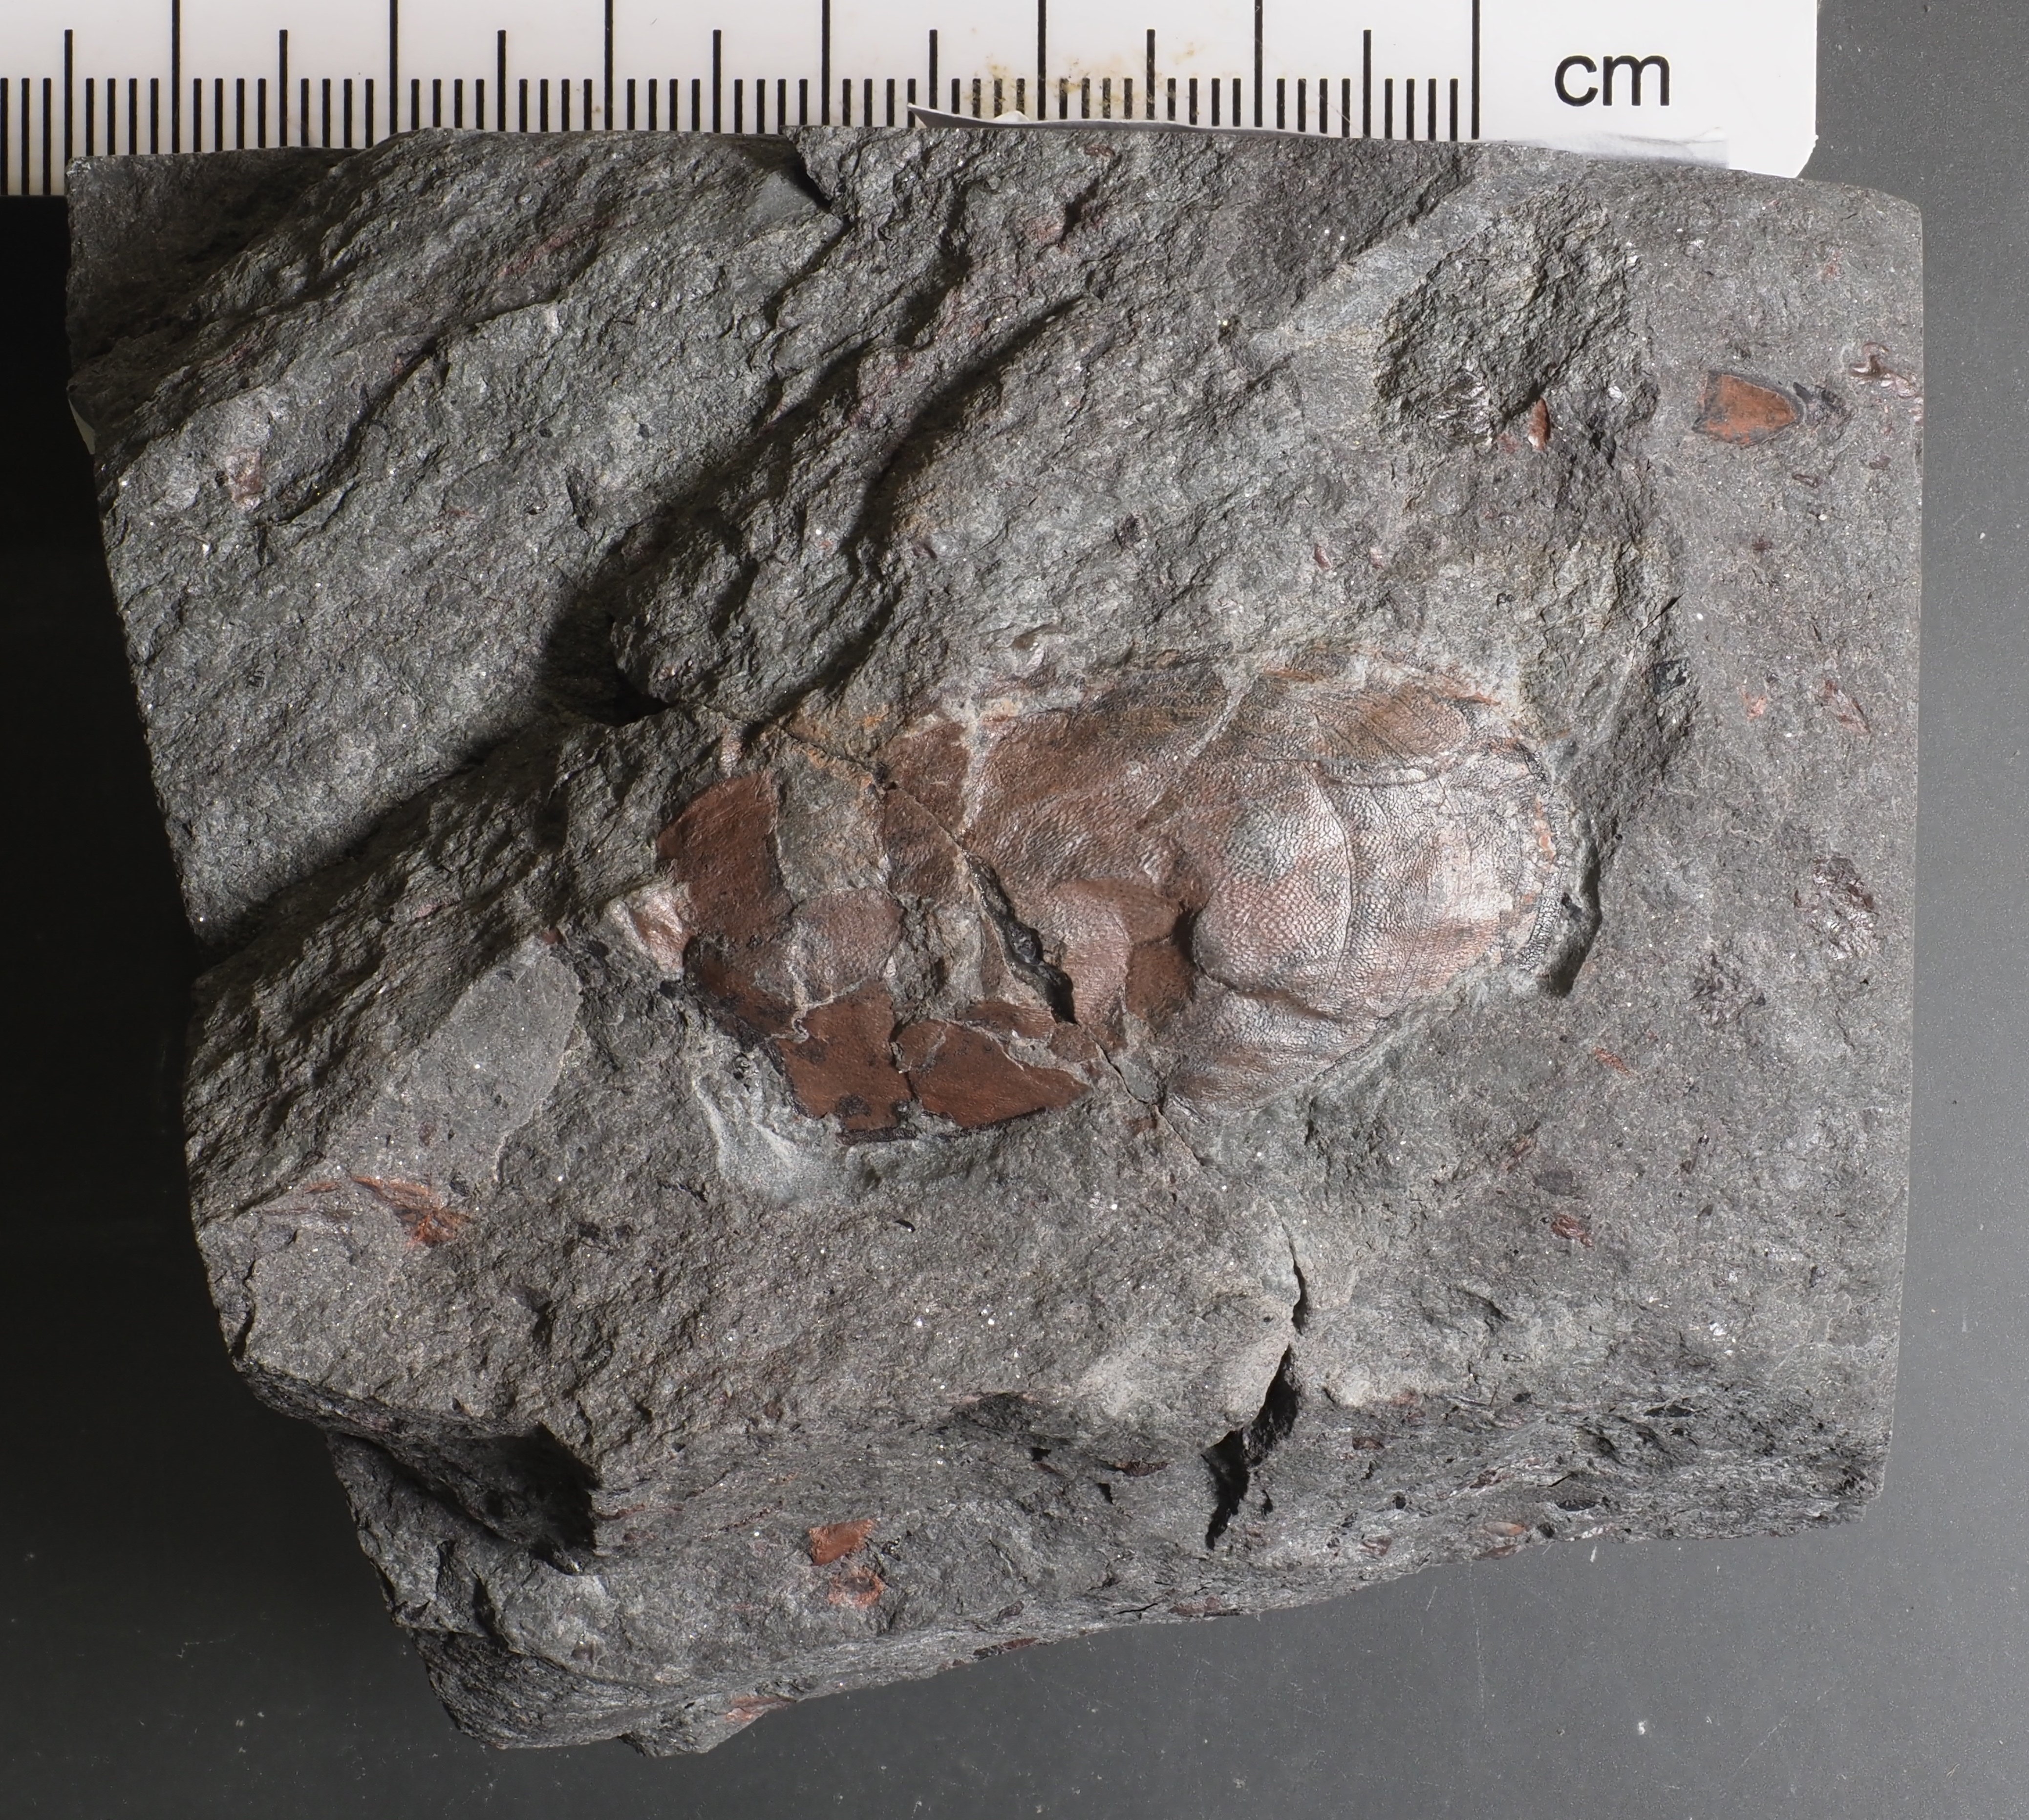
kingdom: Animalia
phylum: Chordata
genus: Europrotaspis
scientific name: Europrotaspis
